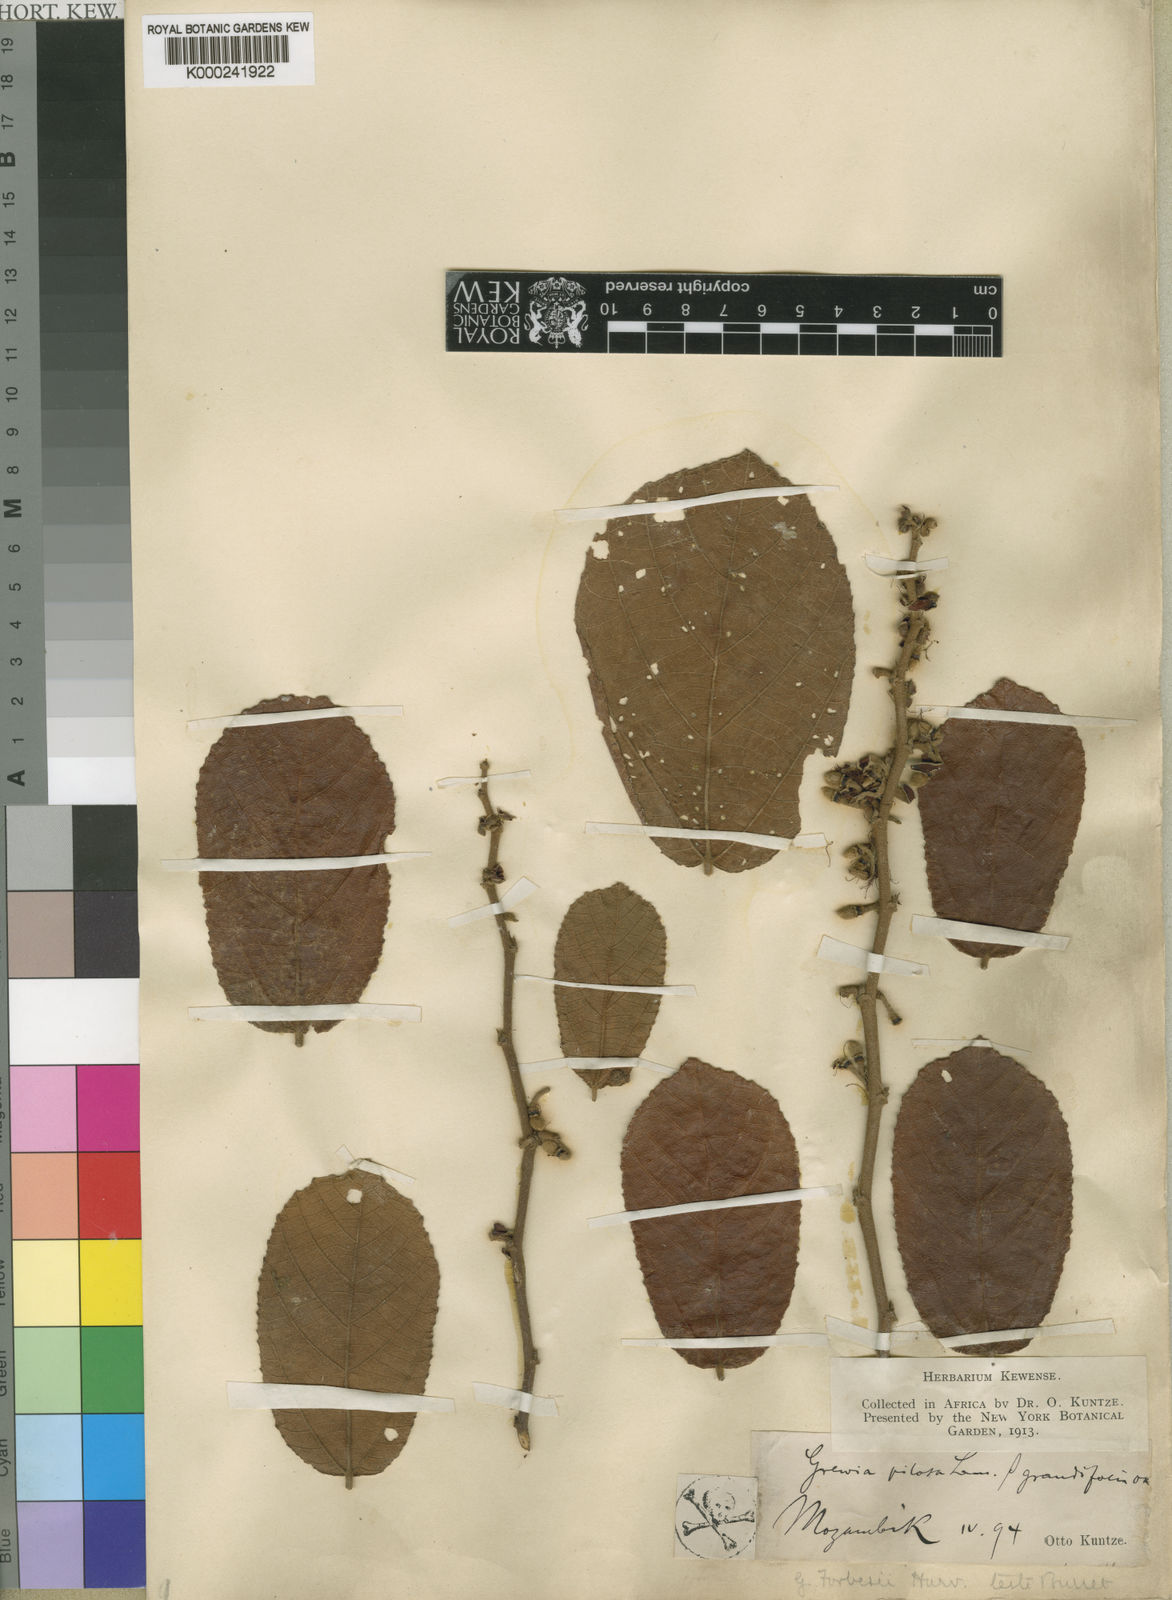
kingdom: Plantae
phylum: Tracheophyta
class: Magnoliopsida
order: Malvales
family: Malvaceae
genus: Grewia
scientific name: Grewia forbesii
